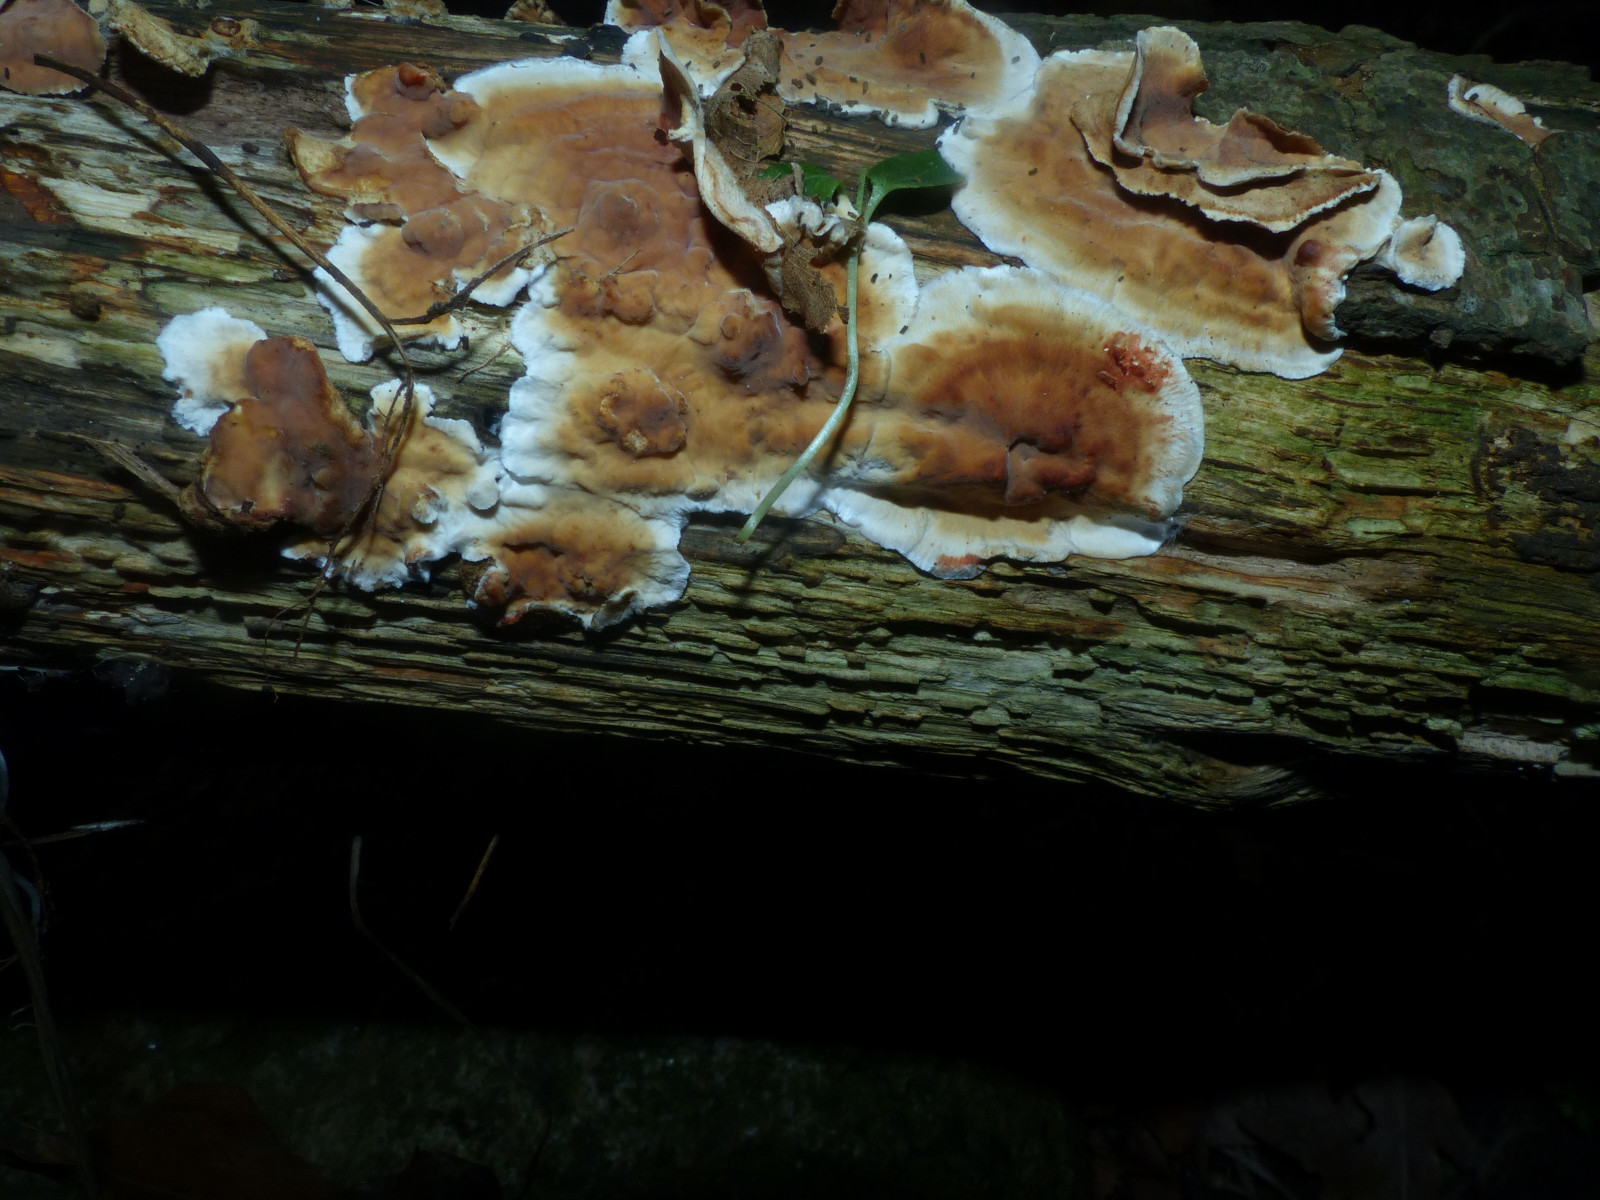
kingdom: Fungi
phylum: Basidiomycota
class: Agaricomycetes
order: Russulales
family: Stereaceae
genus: Stereum
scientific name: Stereum gausapatum
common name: tynd lædersvamp
